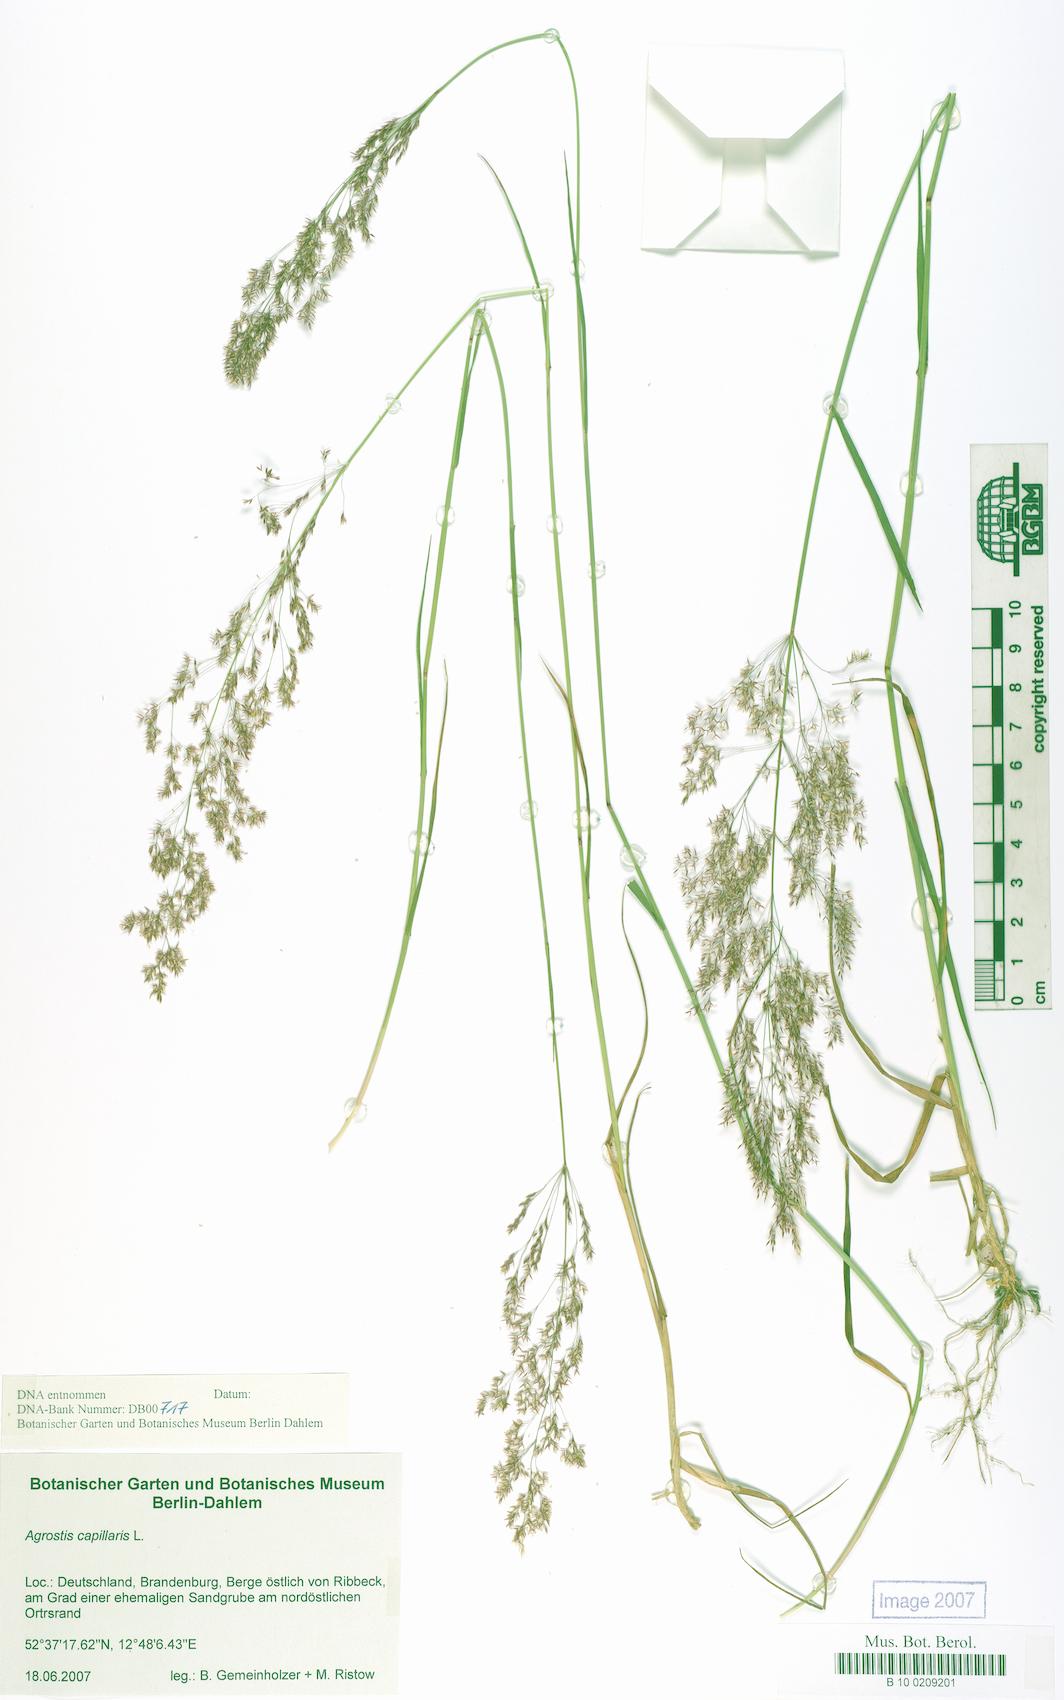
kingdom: Plantae
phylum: Tracheophyta
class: Liliopsida
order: Poales
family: Poaceae
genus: Agrostis
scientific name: Agrostis capillaris
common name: Colonial bentgrass
